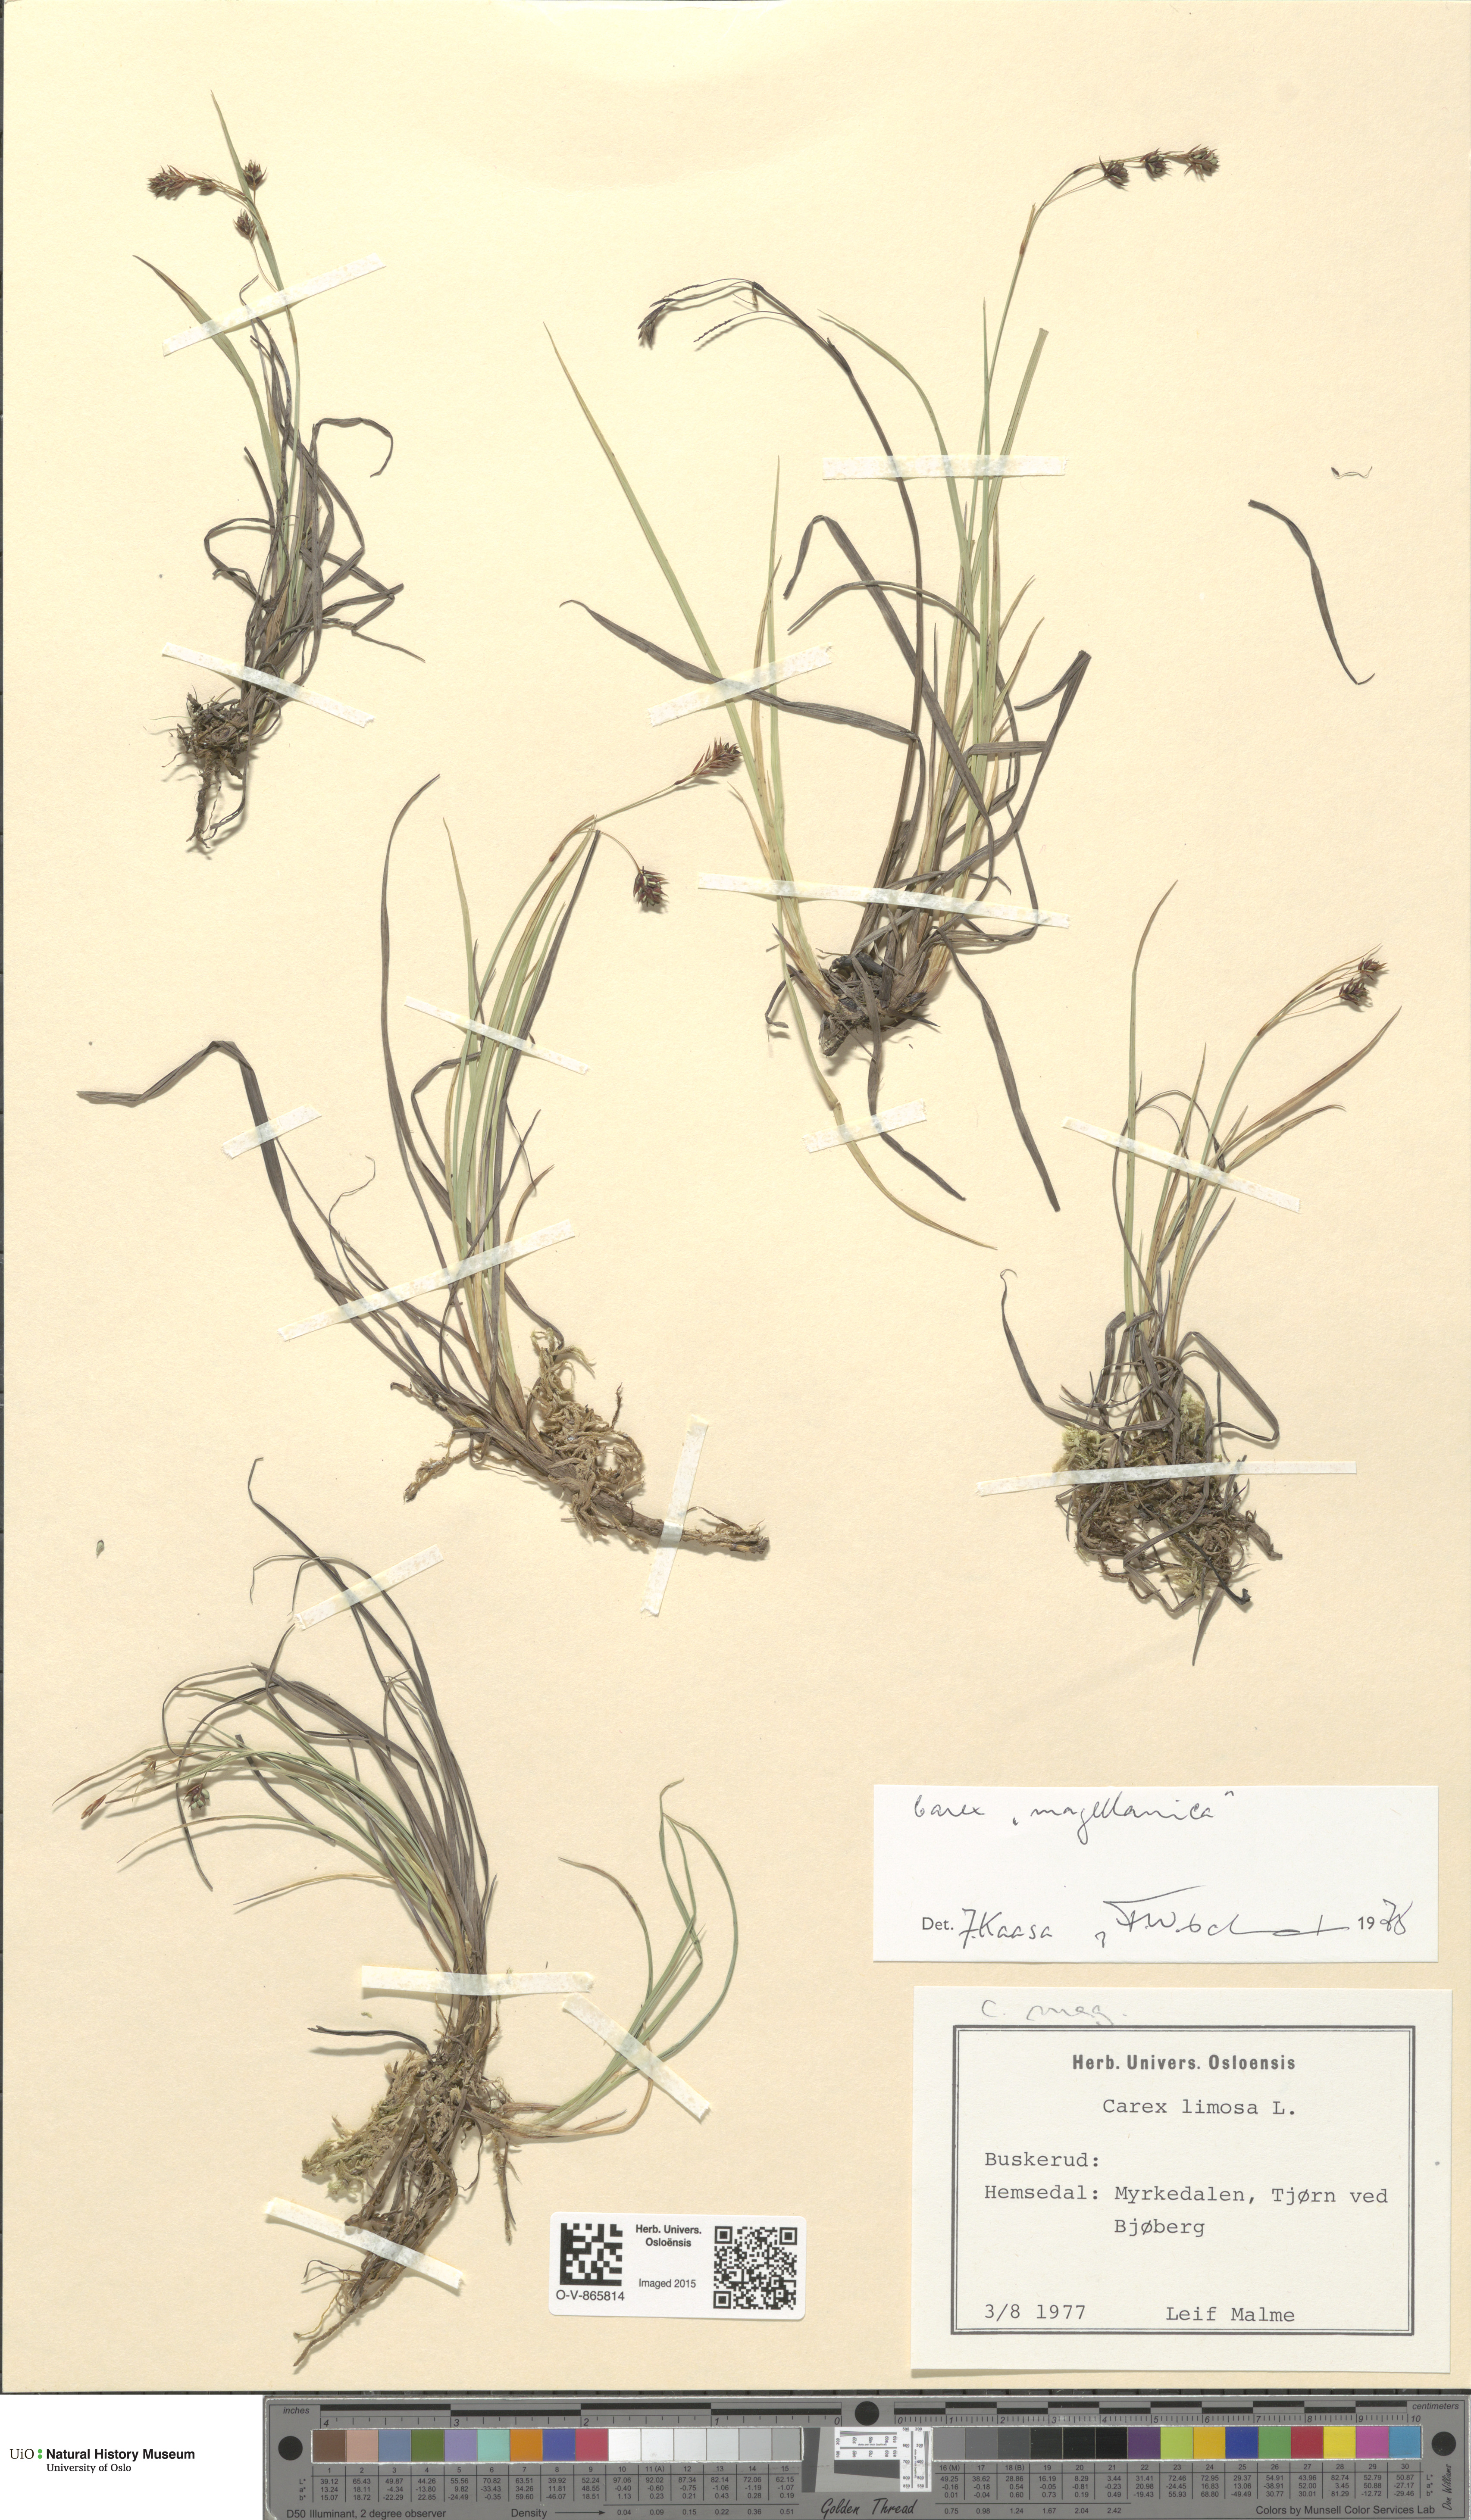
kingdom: Plantae
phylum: Tracheophyta
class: Liliopsida
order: Poales
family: Cyperaceae
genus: Carex
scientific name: Carex magellanica
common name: Bog sedge
